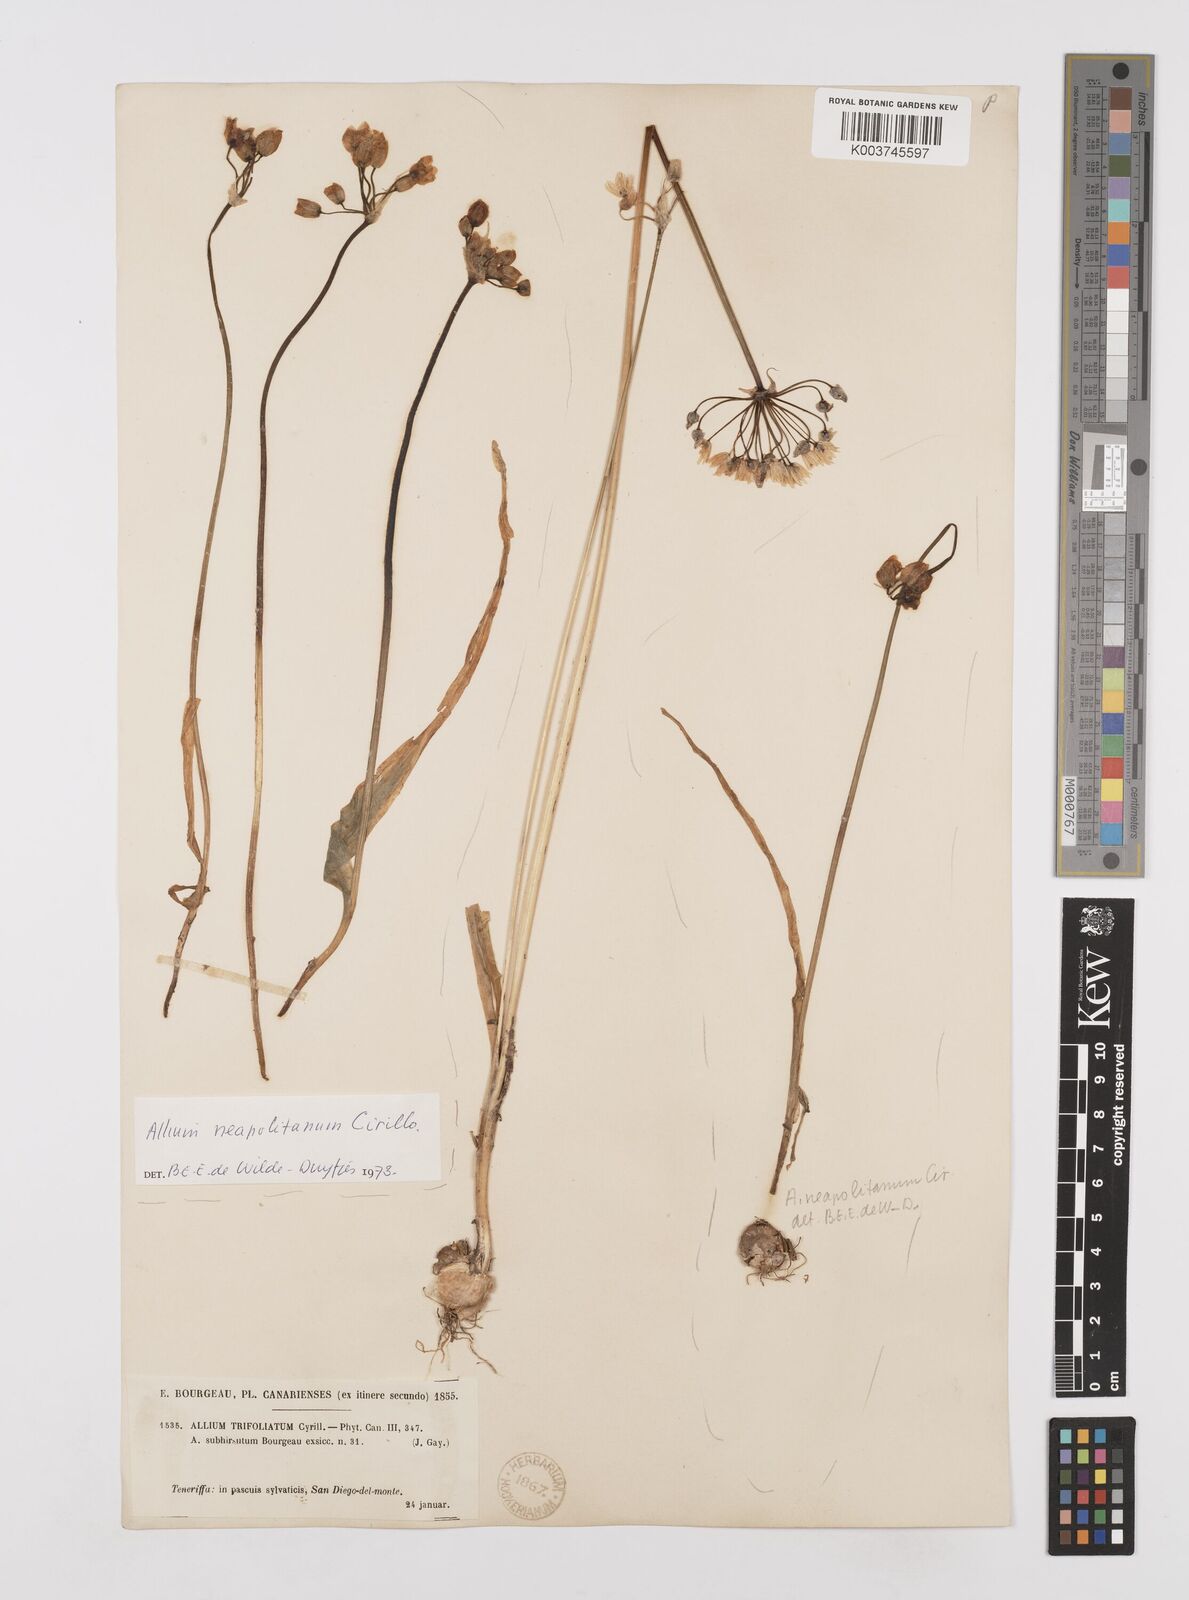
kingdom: Plantae
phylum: Tracheophyta
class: Liliopsida
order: Asparagales
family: Amaryllidaceae
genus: Allium
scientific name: Allium subvillosum
